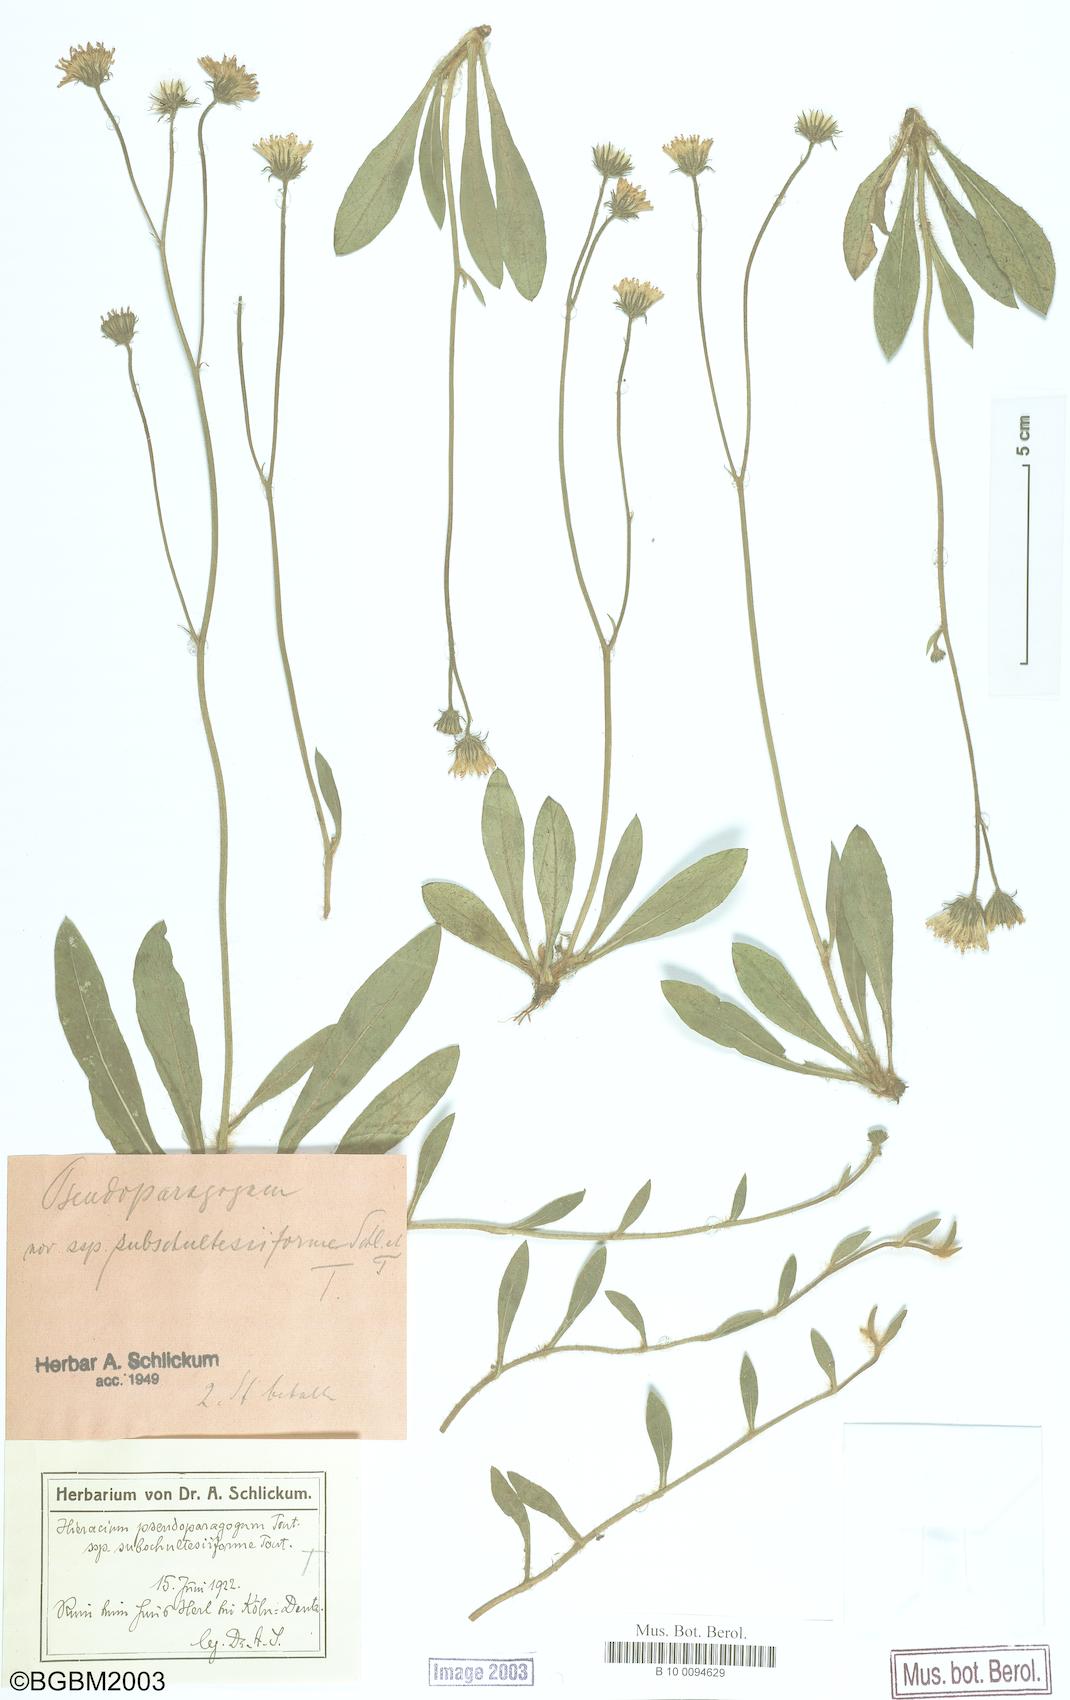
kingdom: Plantae
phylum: Tracheophyta
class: Magnoliopsida
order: Asterales
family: Asteraceae
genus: Pilosella
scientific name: Pilosella pseudoparagoga
